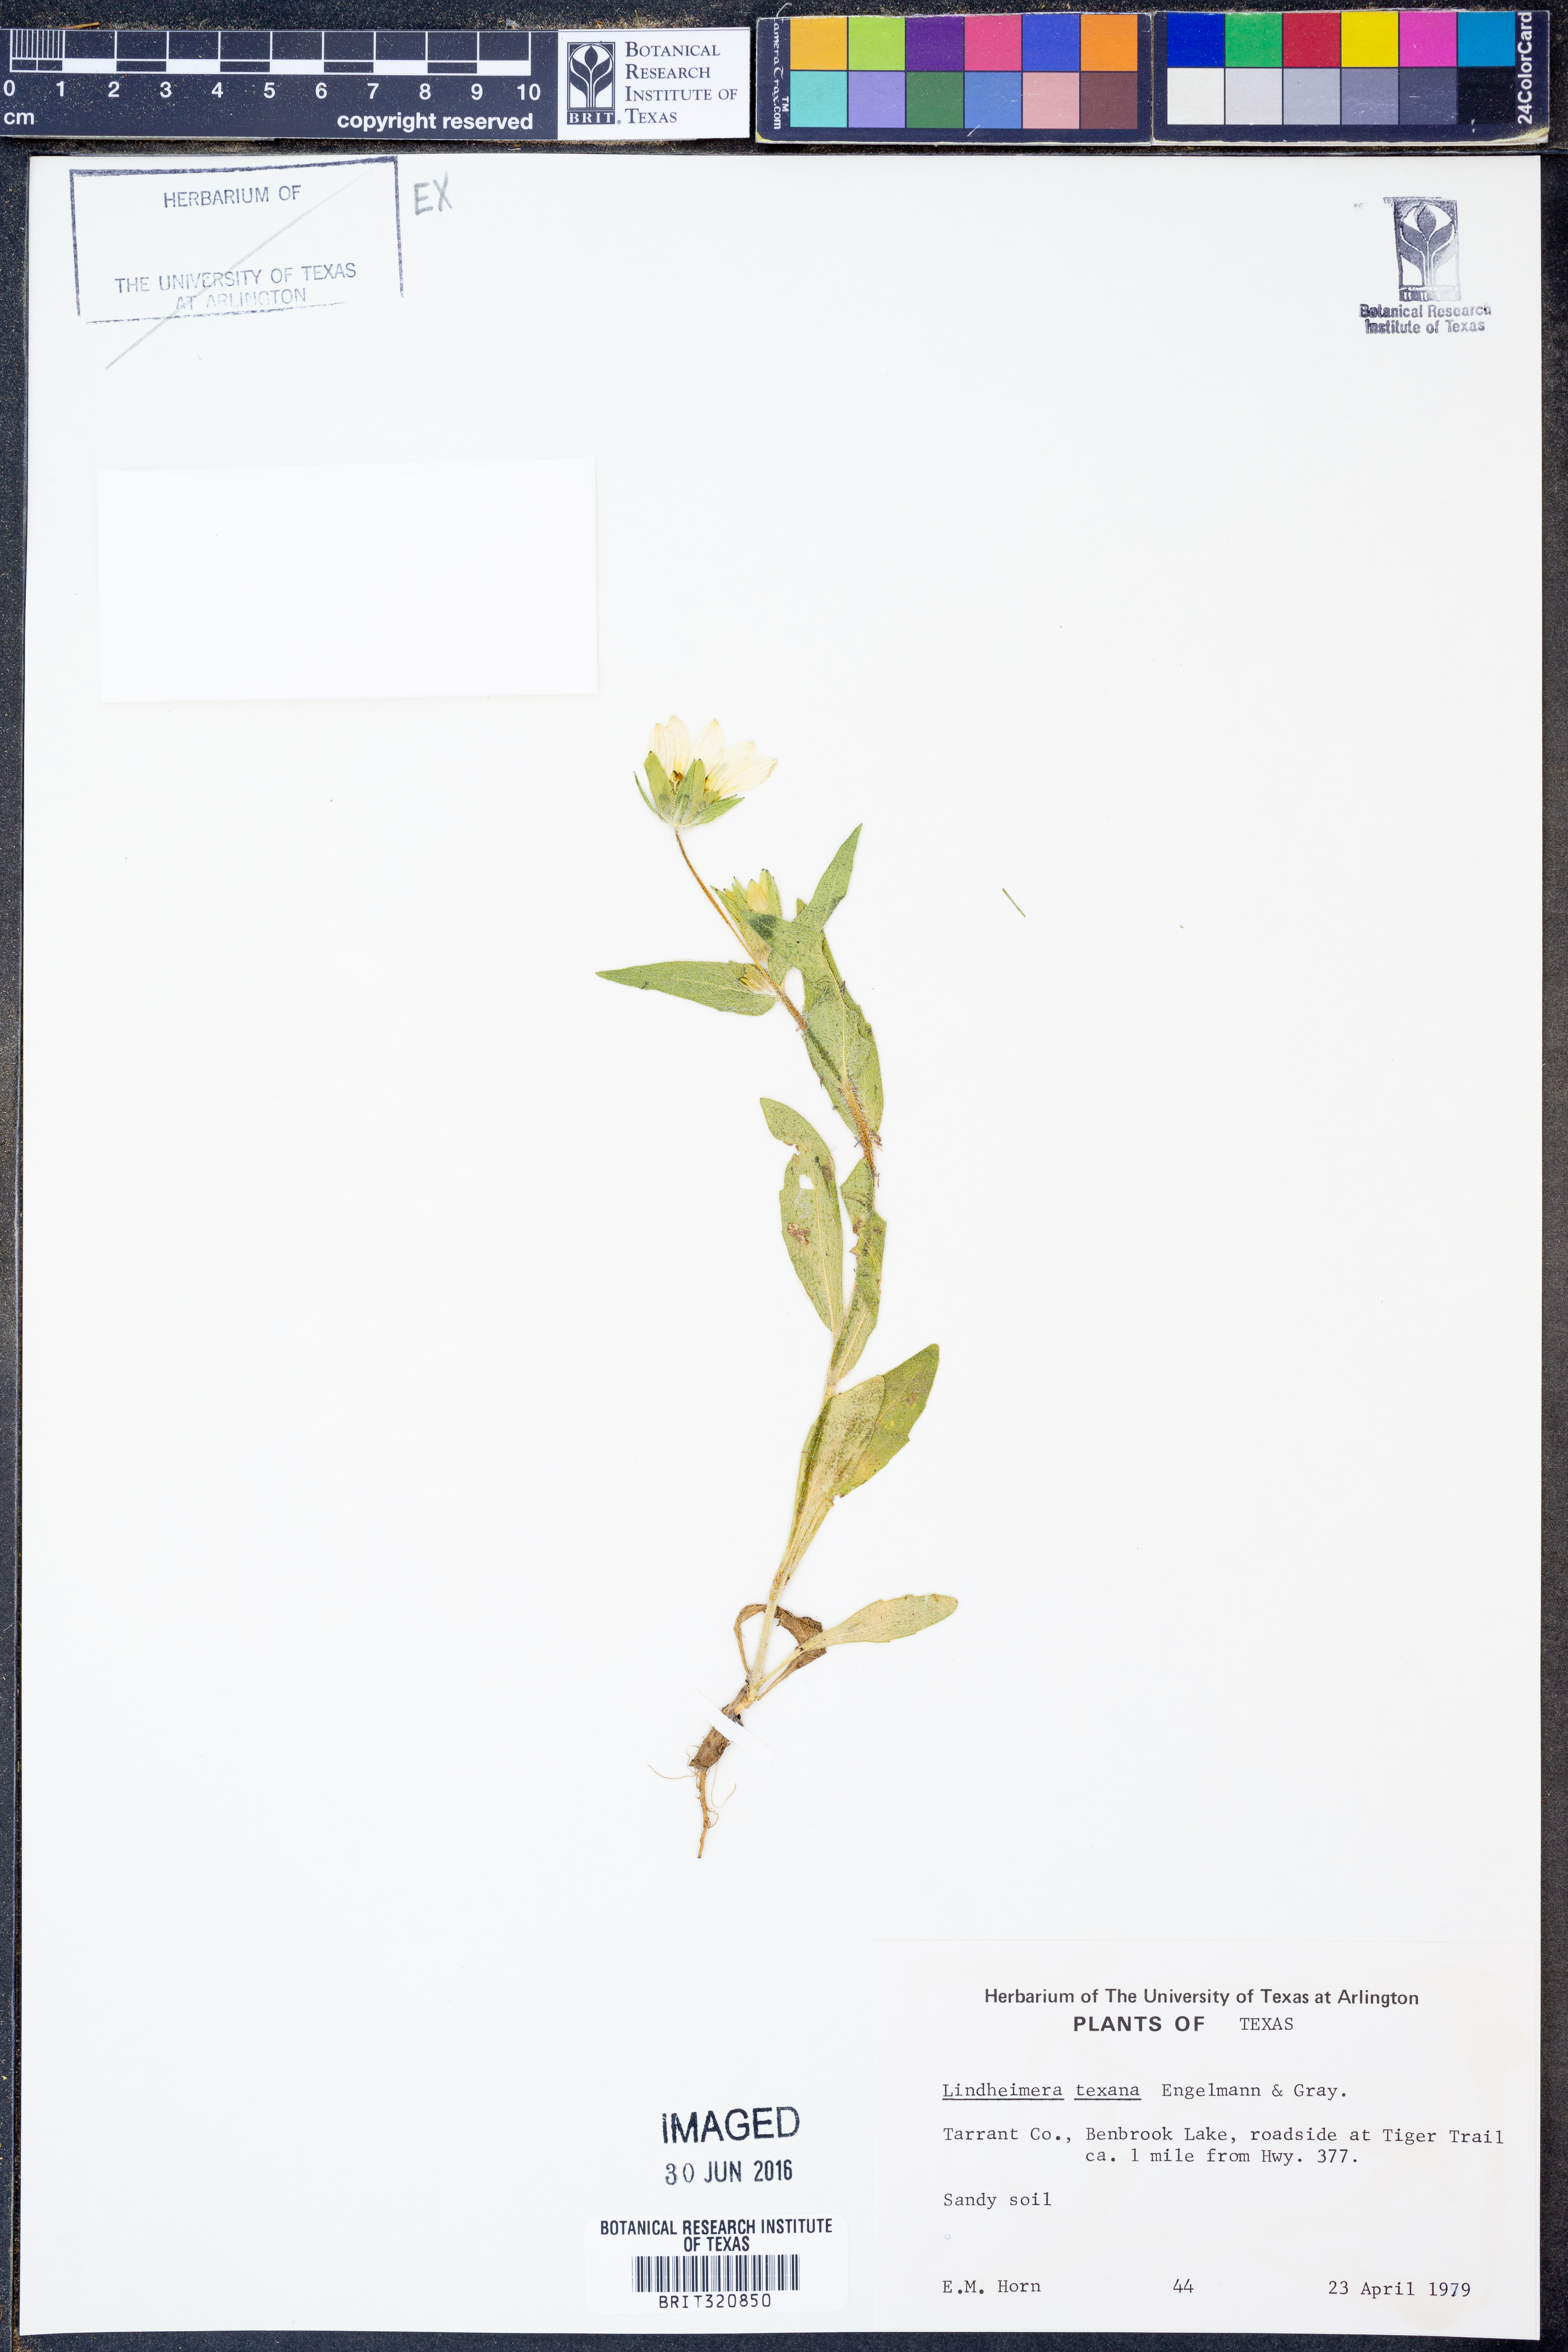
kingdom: Plantae
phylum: Tracheophyta
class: Magnoliopsida
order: Asterales
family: Asteraceae
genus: Lindheimera
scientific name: Lindheimera texana
